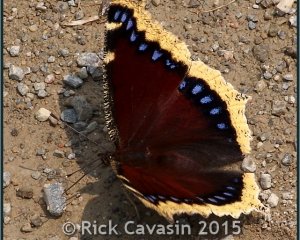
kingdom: Animalia
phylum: Arthropoda
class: Insecta
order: Lepidoptera
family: Nymphalidae
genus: Nymphalis
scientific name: Nymphalis antiopa
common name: Mourning Cloak
